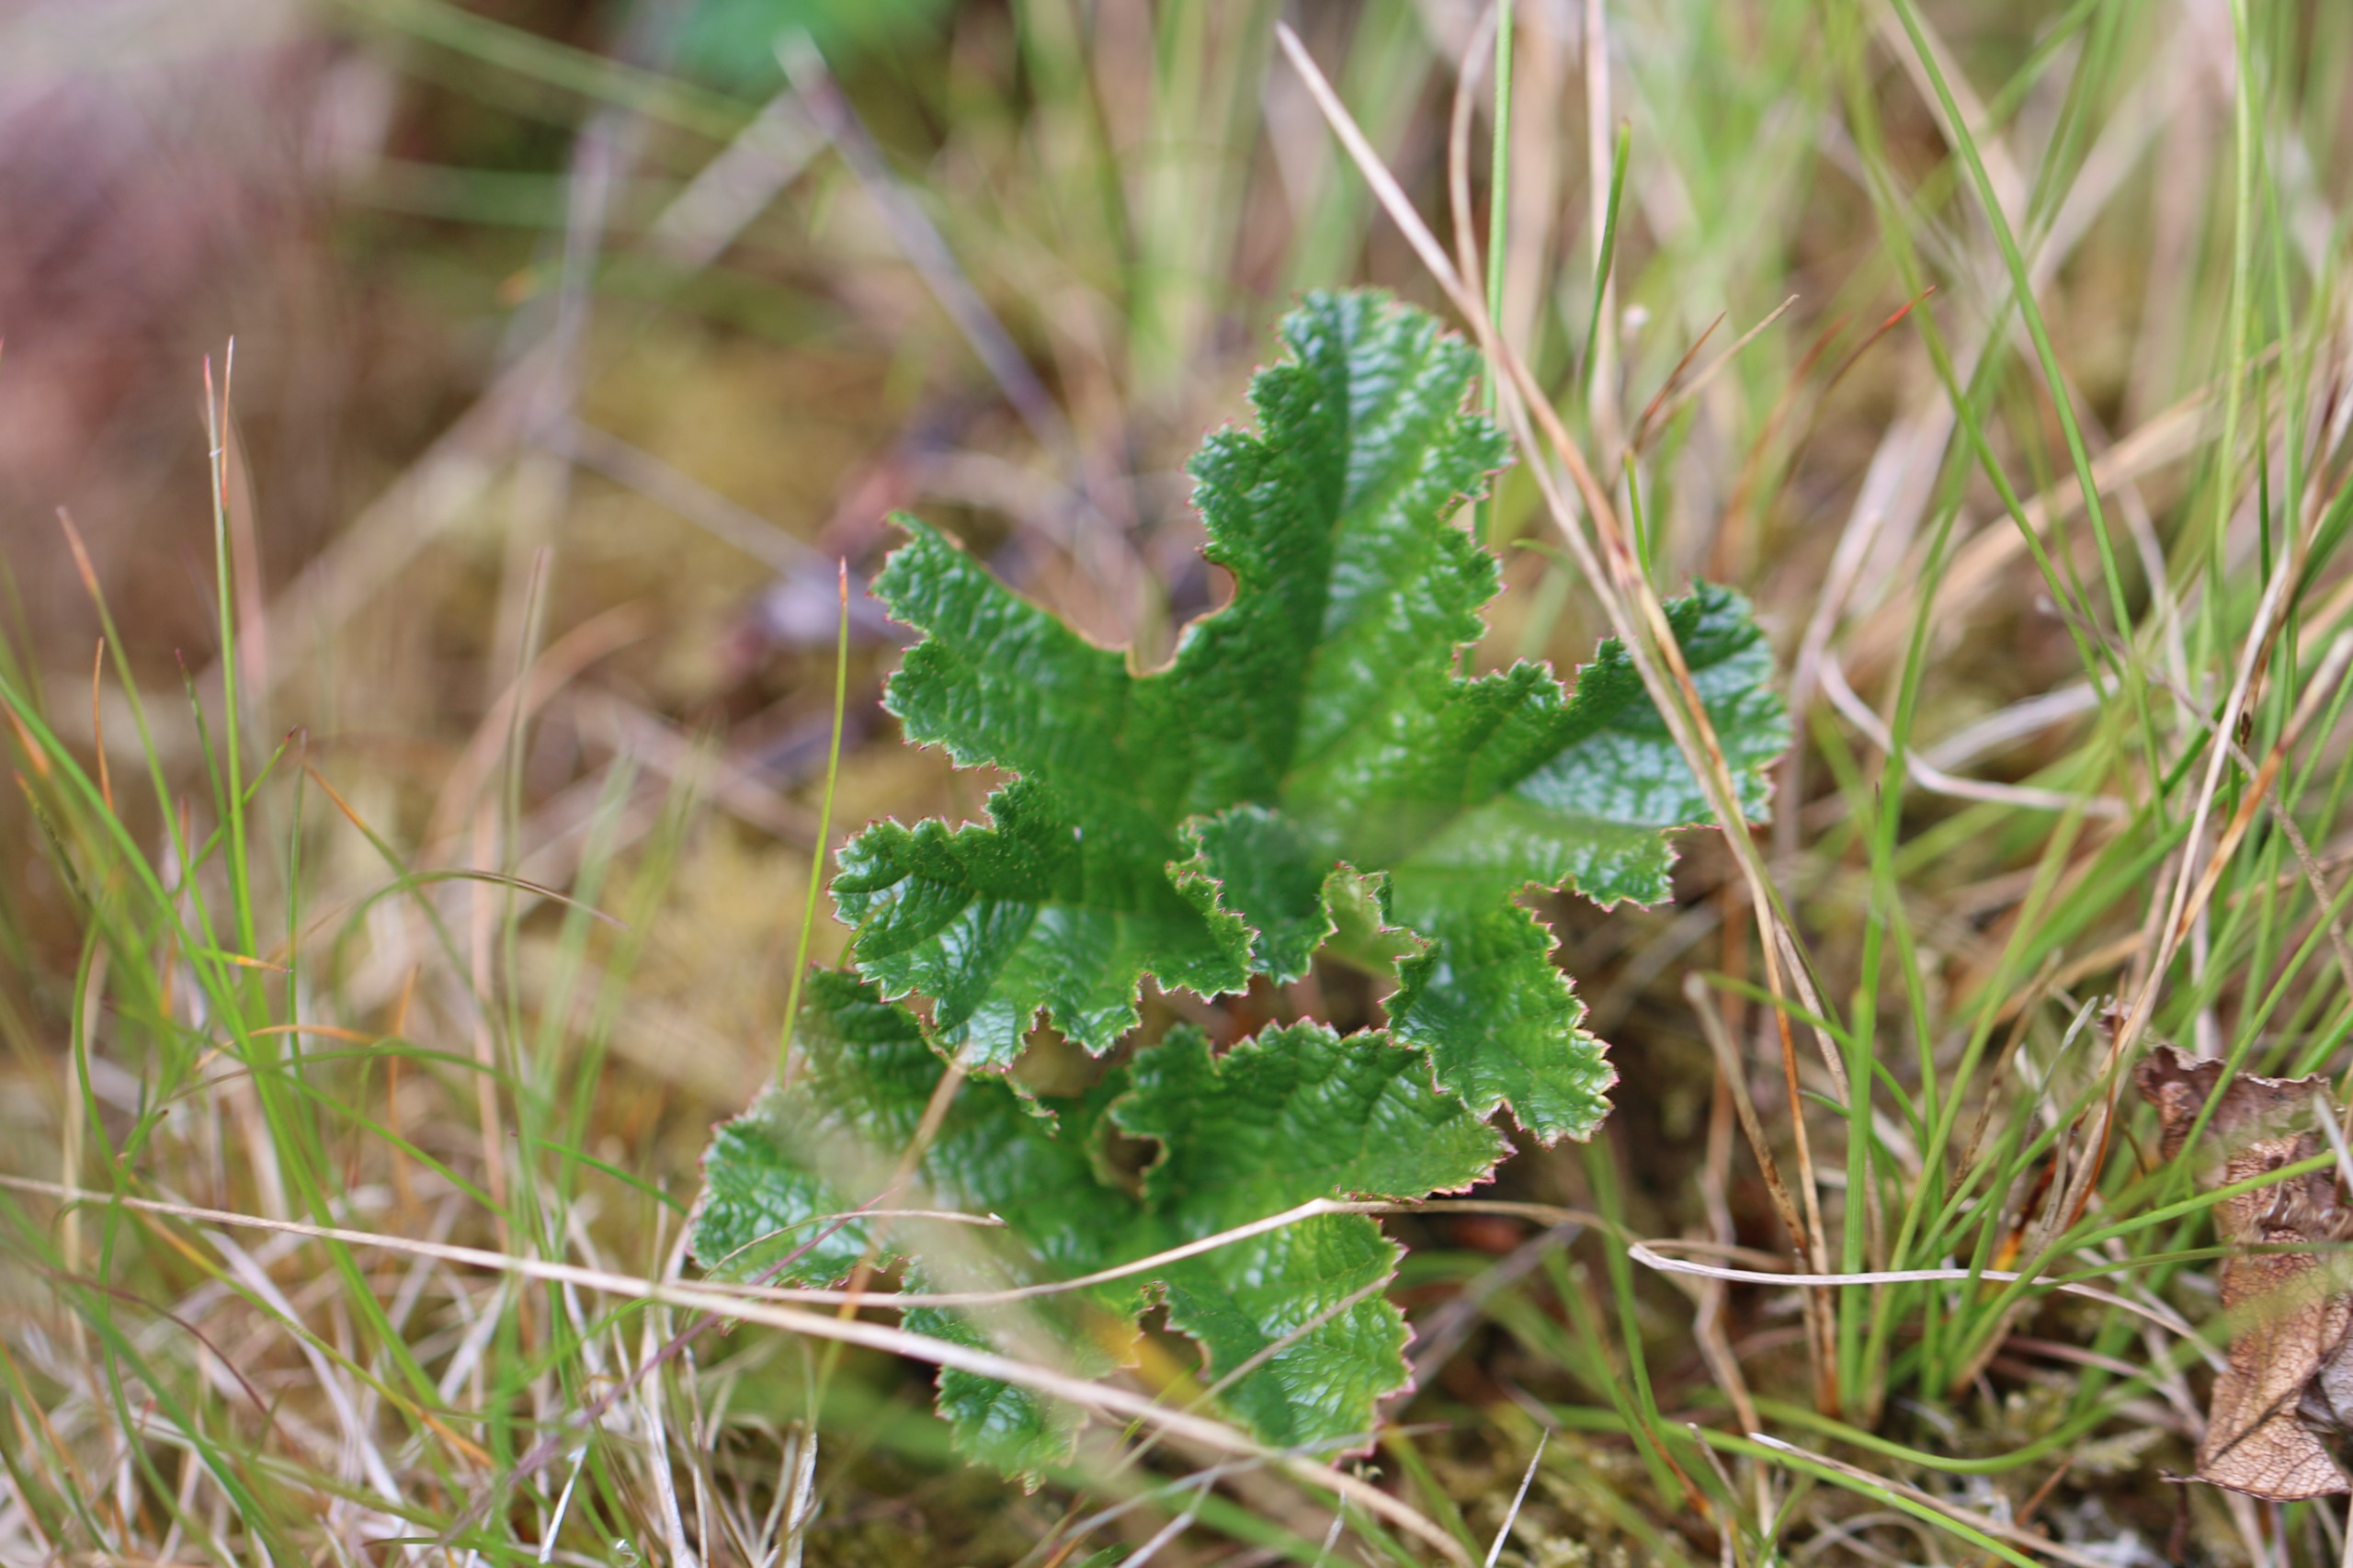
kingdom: Plantae
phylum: Tracheophyta
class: Magnoliopsida
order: Rosales
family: Rosaceae
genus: Rubus
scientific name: Rubus chamaemorus
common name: Multebær
